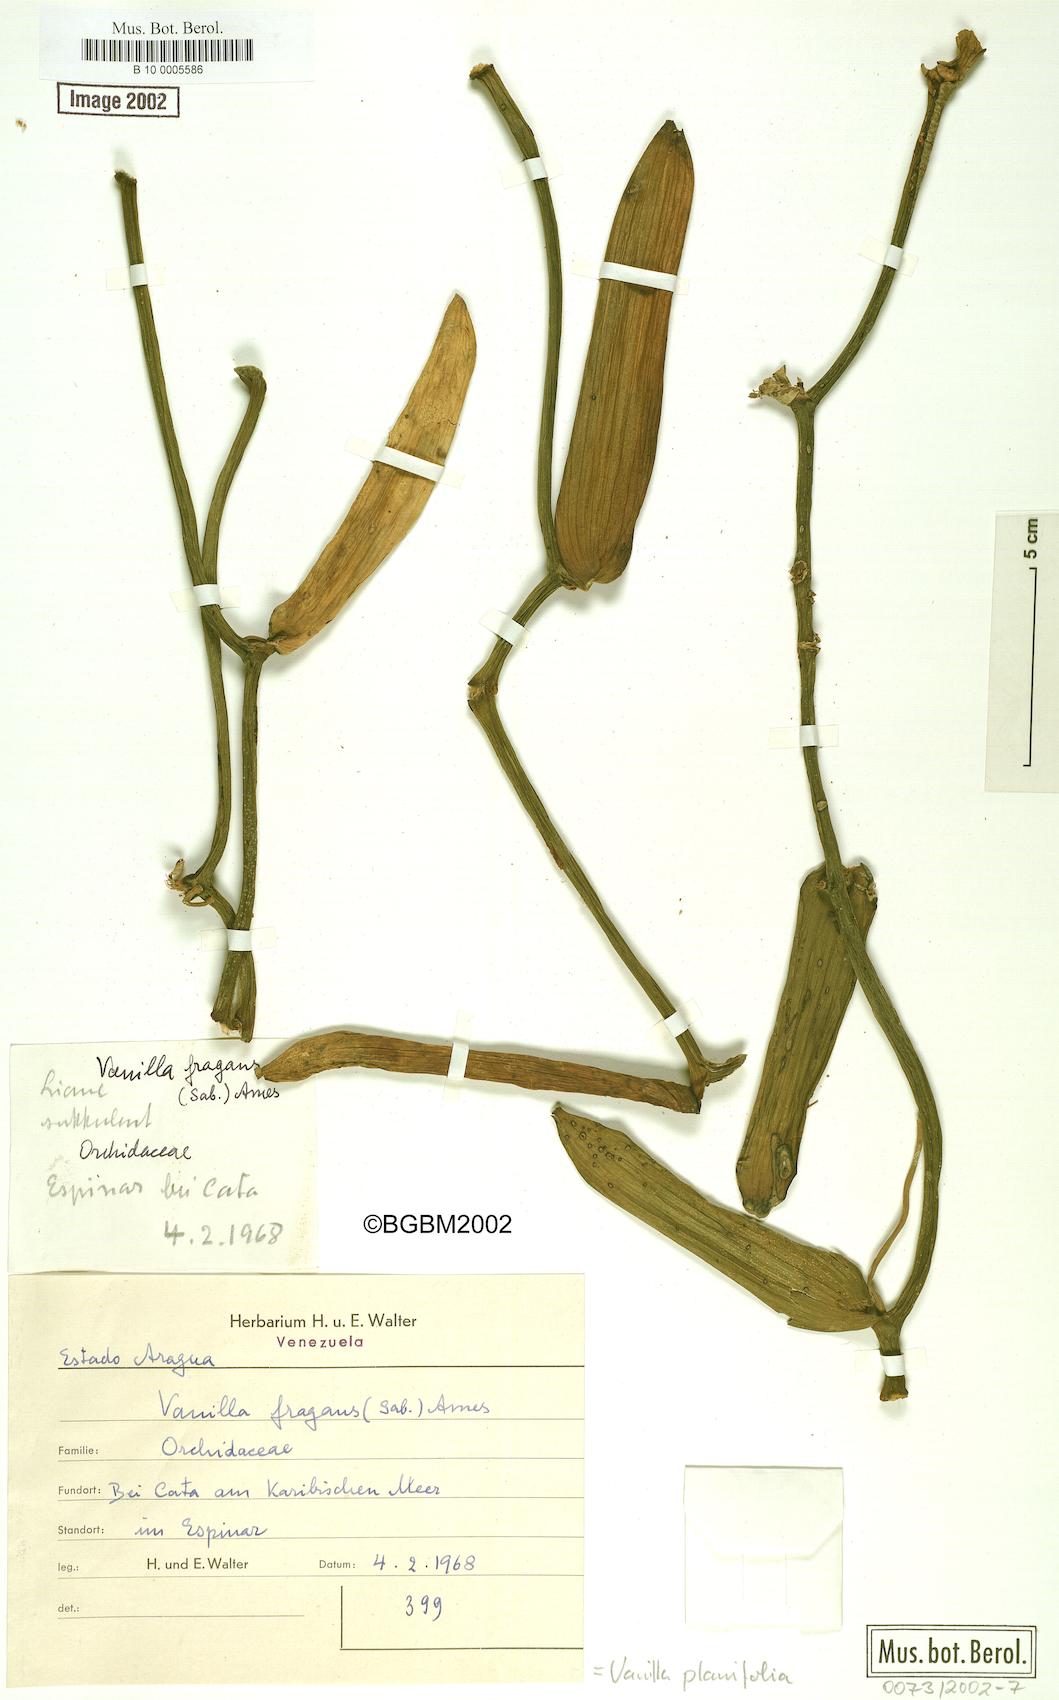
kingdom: Plantae
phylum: Tracheophyta
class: Liliopsida
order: Asparagales
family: Orchidaceae
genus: Vanilla
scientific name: Vanilla planifolia
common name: Vanilla
